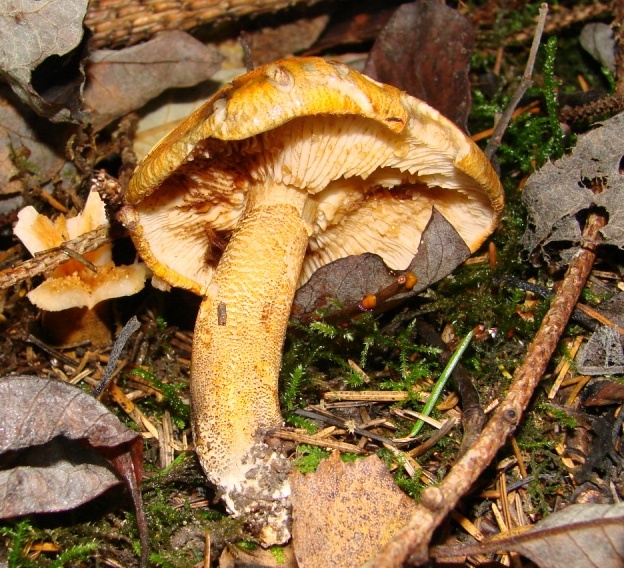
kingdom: Fungi
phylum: Basidiomycota
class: Agaricomycetes
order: Agaricales
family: Tricholomataceae
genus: Tricholoma
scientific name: Tricholoma aurantium
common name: orangegul ridderhat
